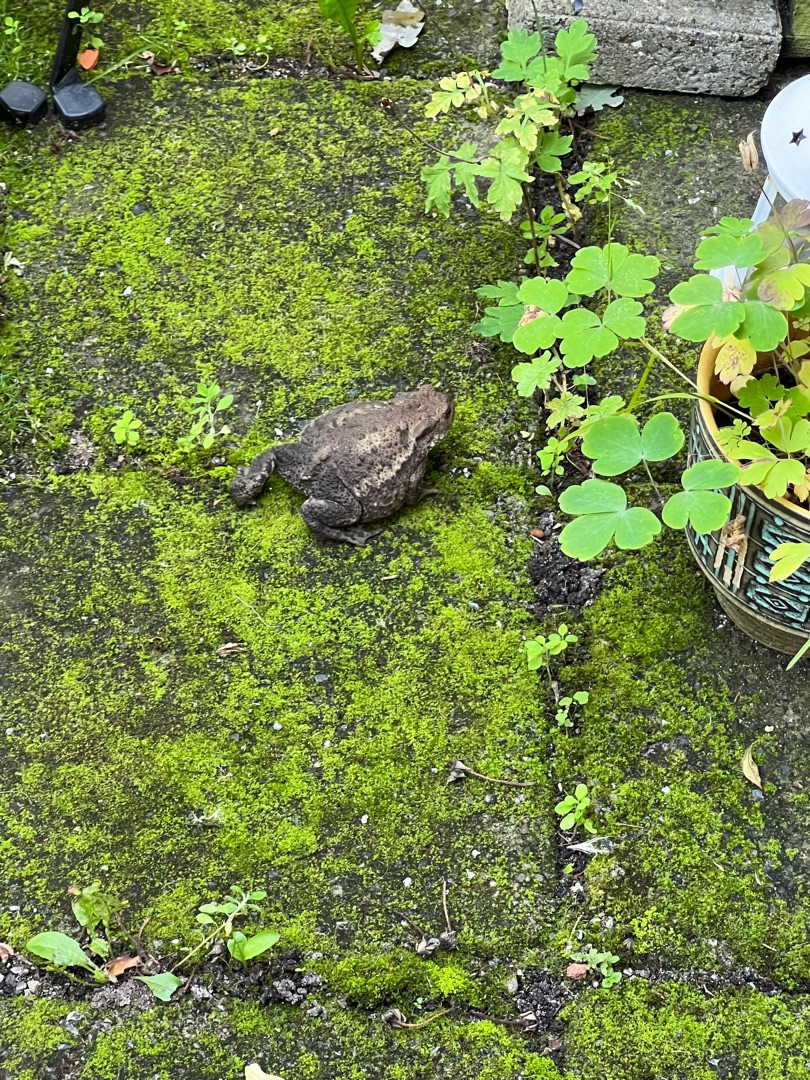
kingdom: Animalia
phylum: Chordata
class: Amphibia
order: Anura
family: Bufonidae
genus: Bufo
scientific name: Bufo bufo
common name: Skrubtudse
